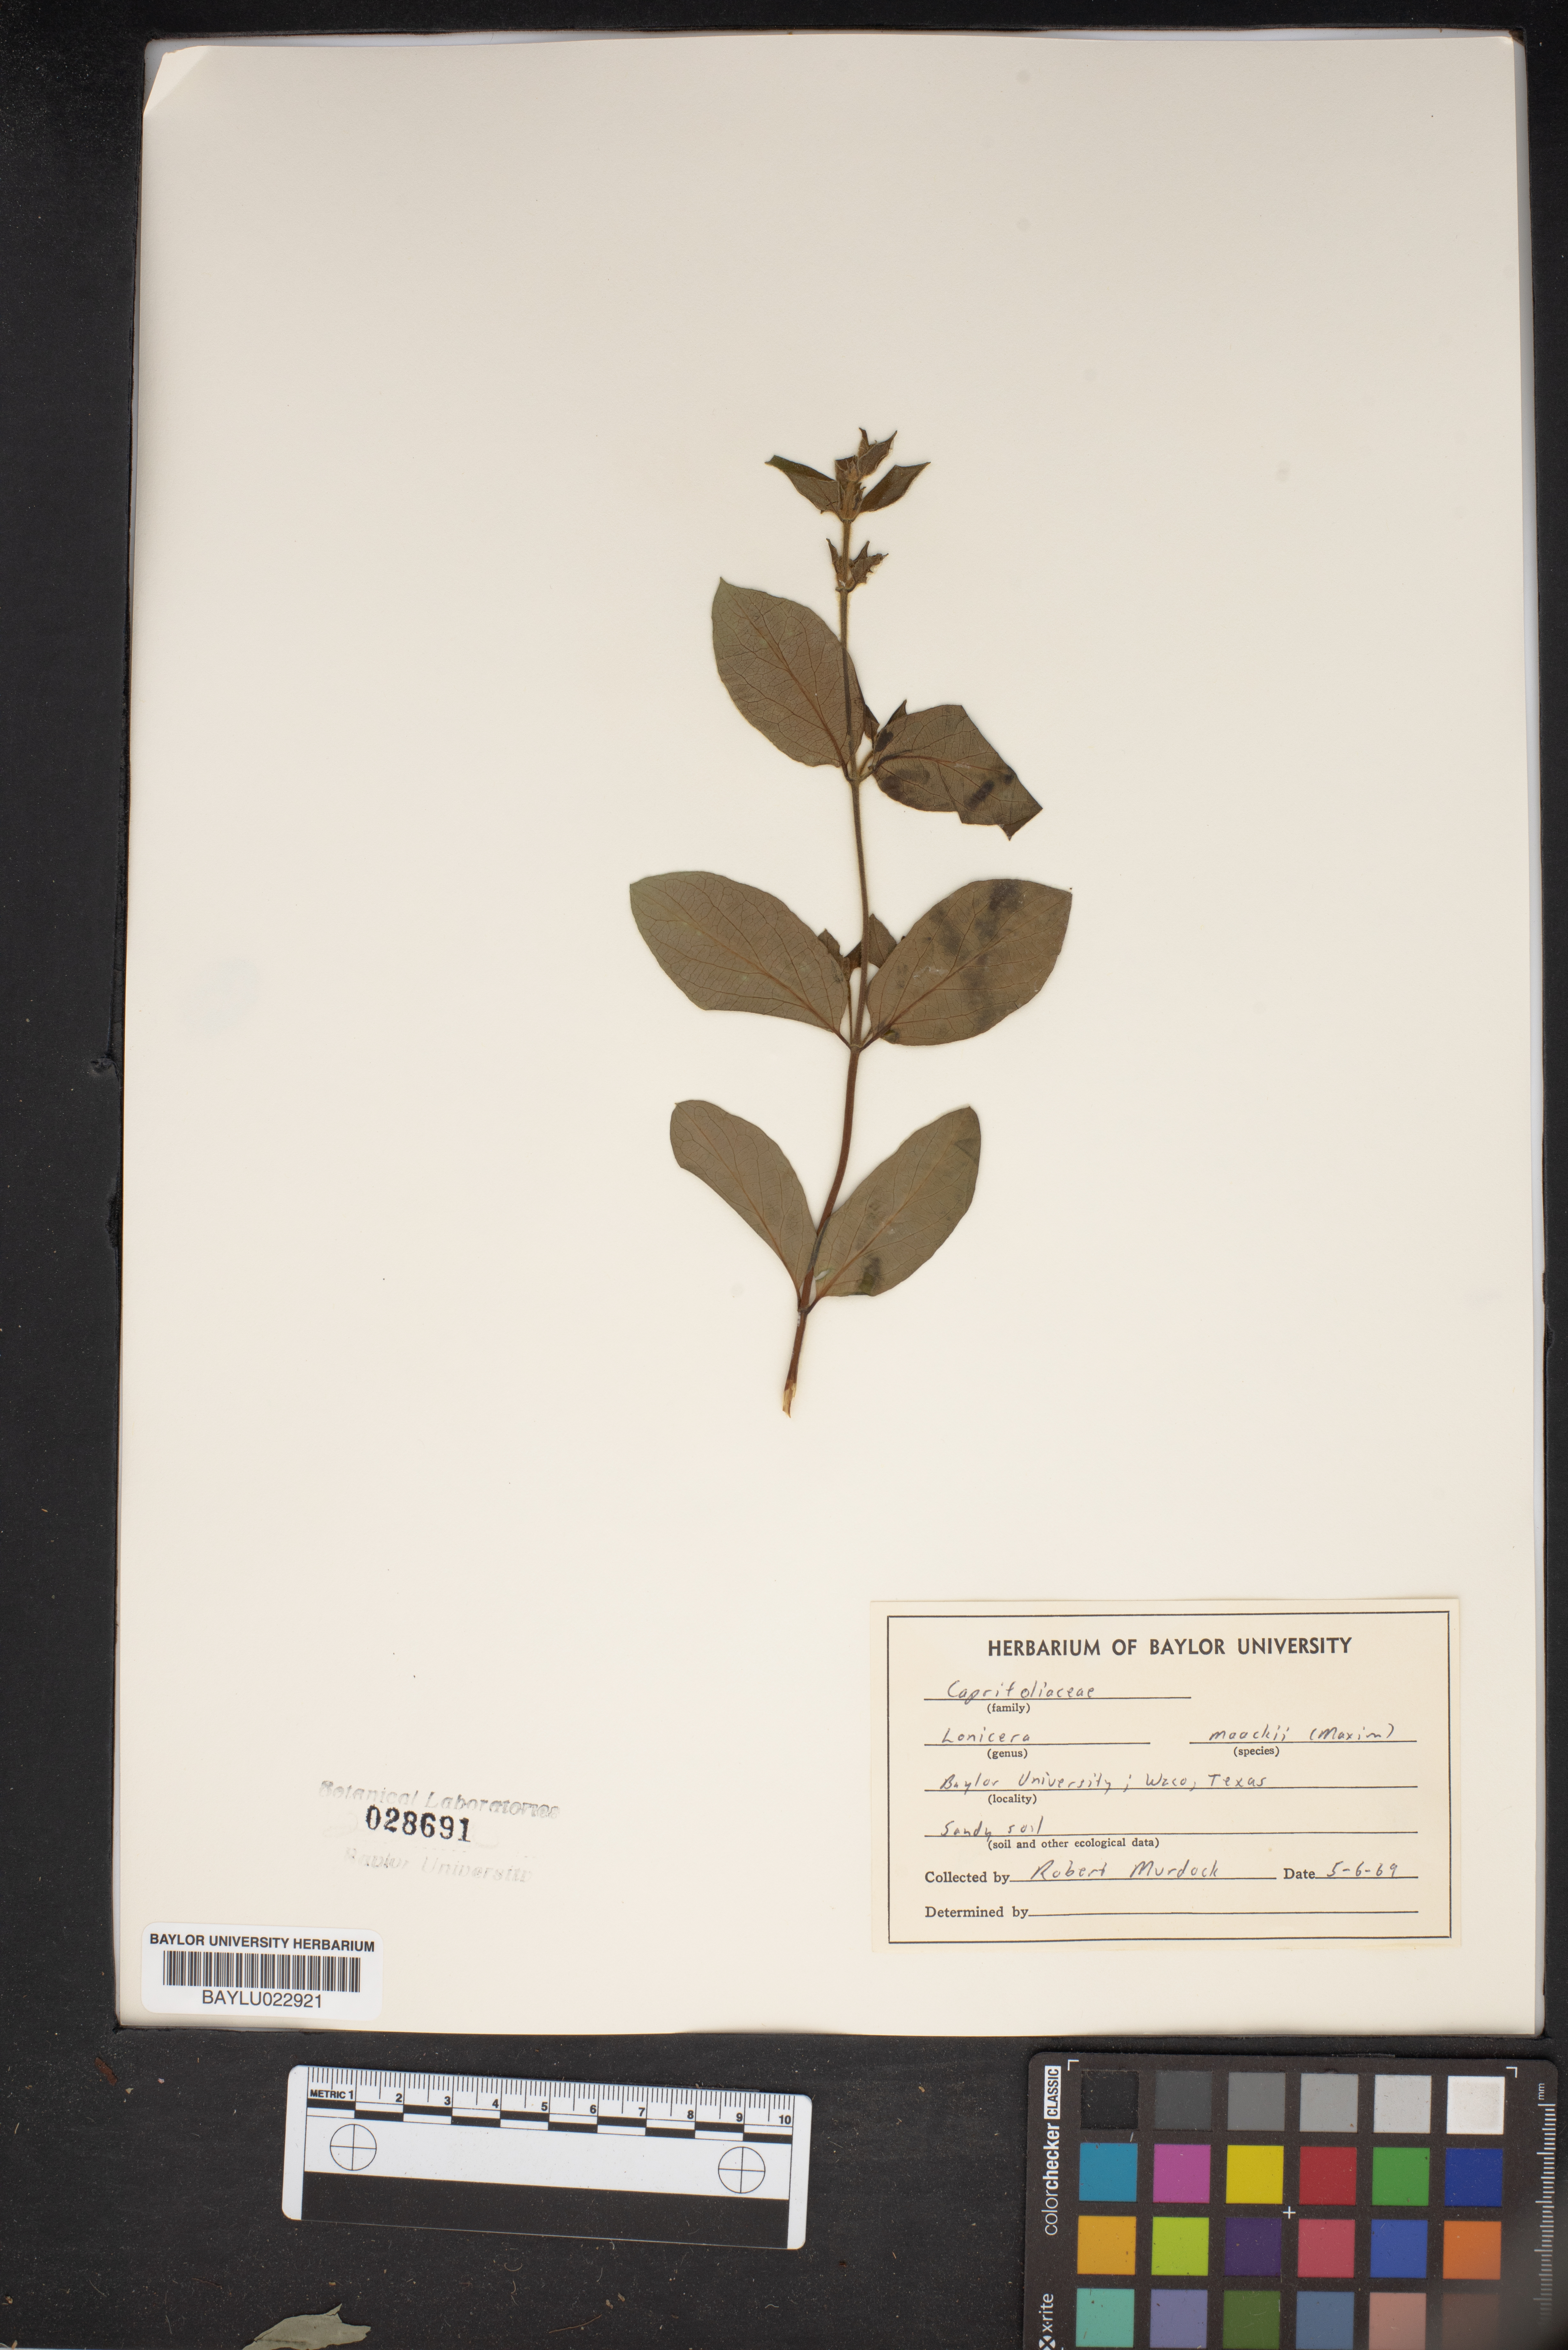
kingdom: Plantae
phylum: Tracheophyta
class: Magnoliopsida
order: Dipsacales
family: Caprifoliaceae
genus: Lonicera
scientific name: Lonicera maackii
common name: Amur honeysuckle
